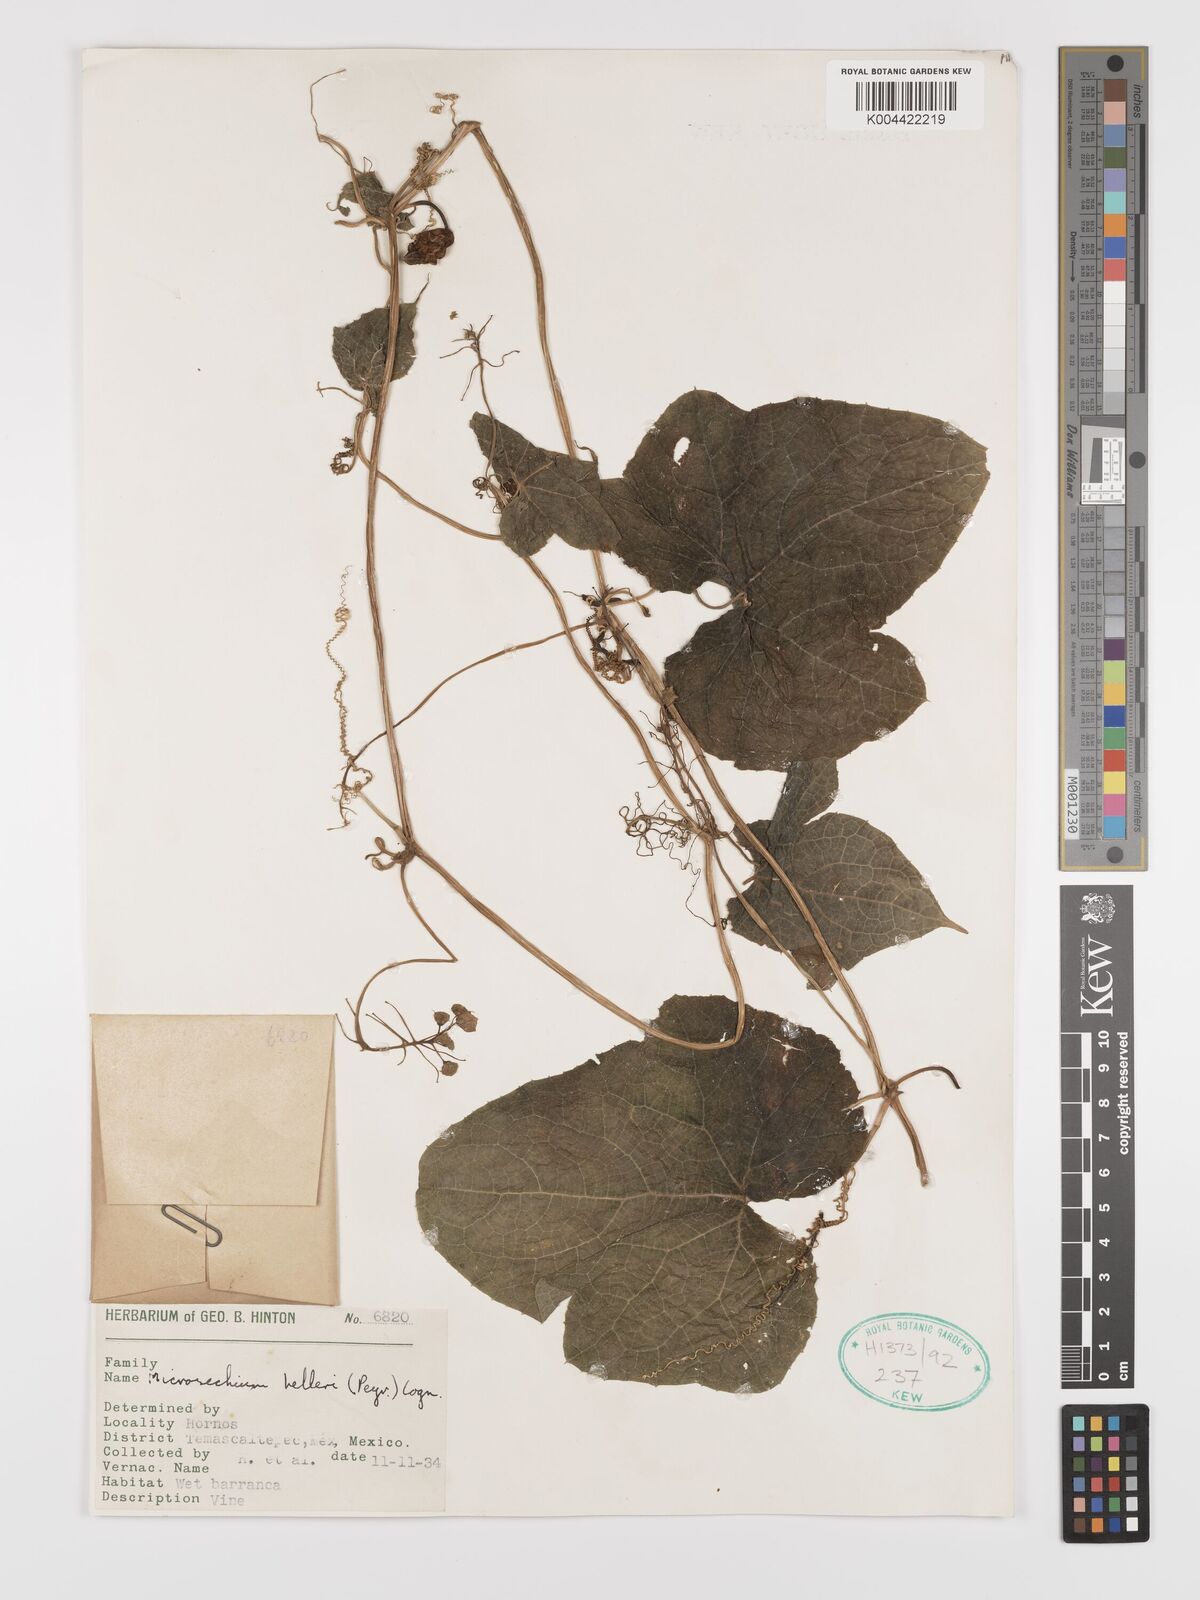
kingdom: Plantae
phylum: Tracheophyta
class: Magnoliopsida
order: Cucurbitales
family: Cucurbitaceae
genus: Microsechium
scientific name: Microsechium palmatum
